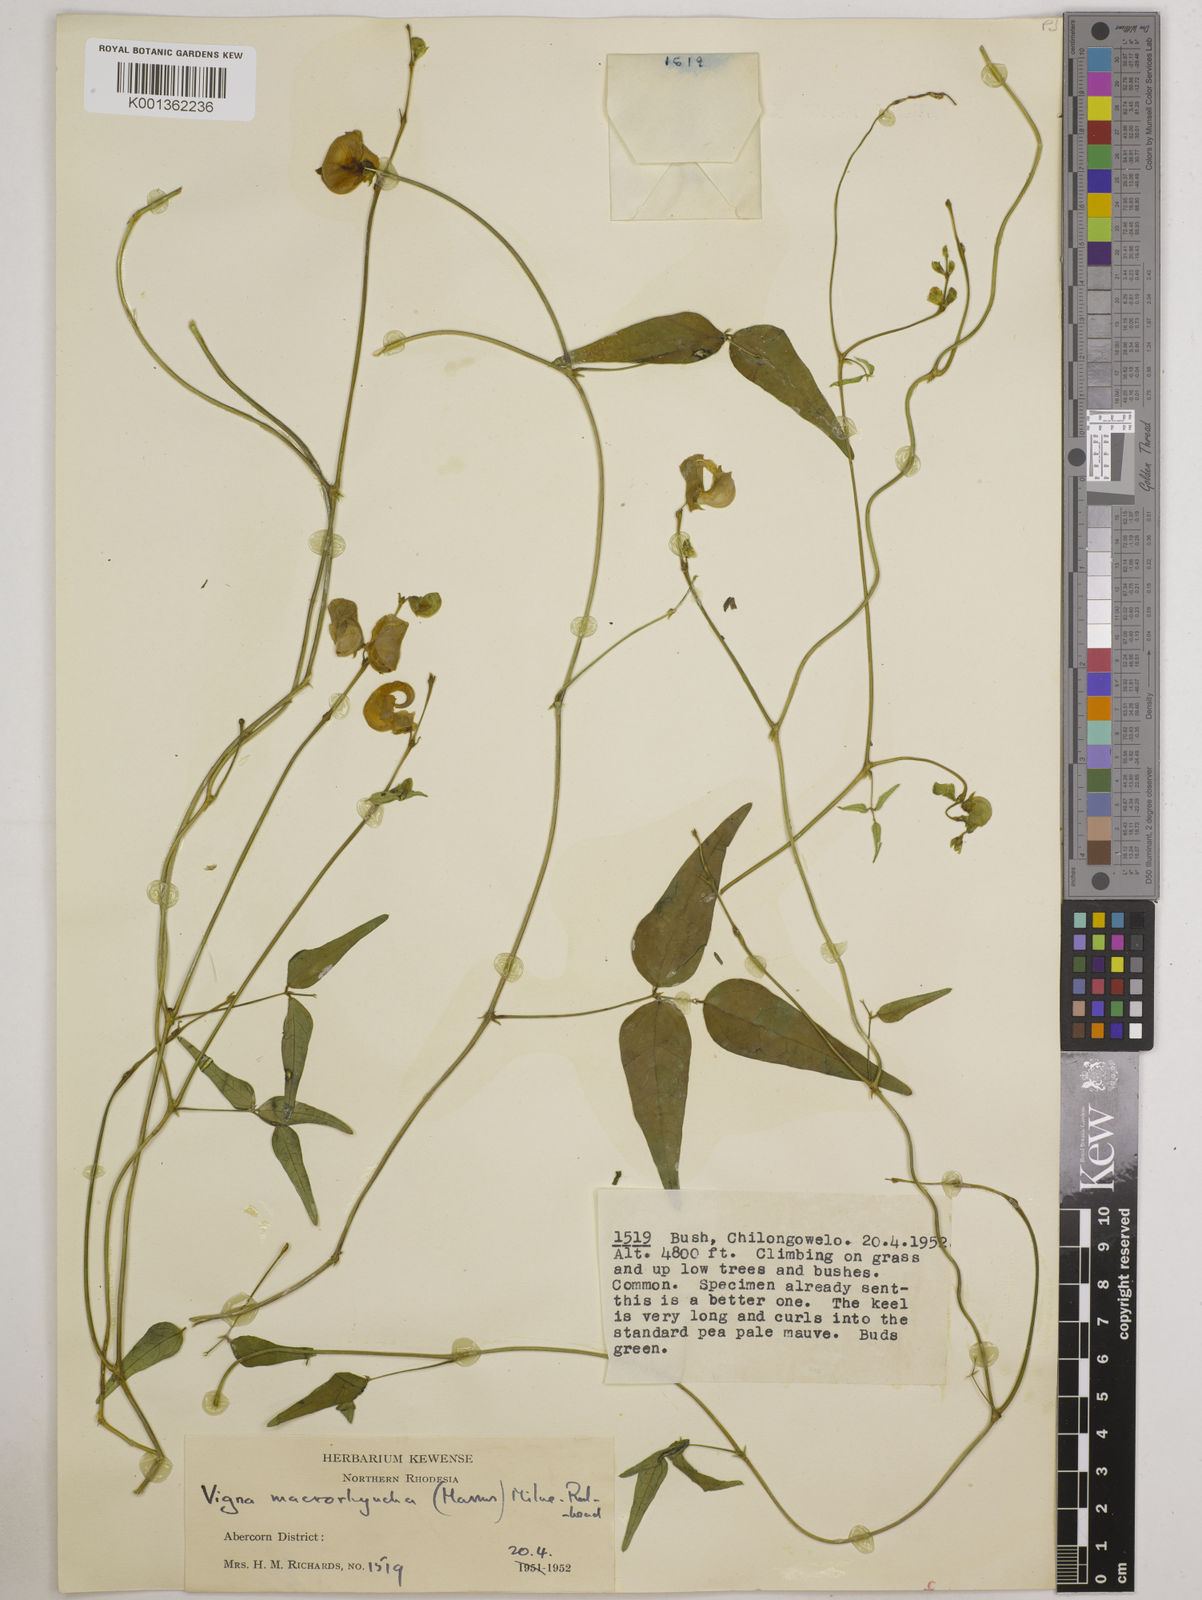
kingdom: Plantae
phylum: Tracheophyta
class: Magnoliopsida
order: Fabales
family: Fabaceae
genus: Wajira
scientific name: Wajira grahamiana
